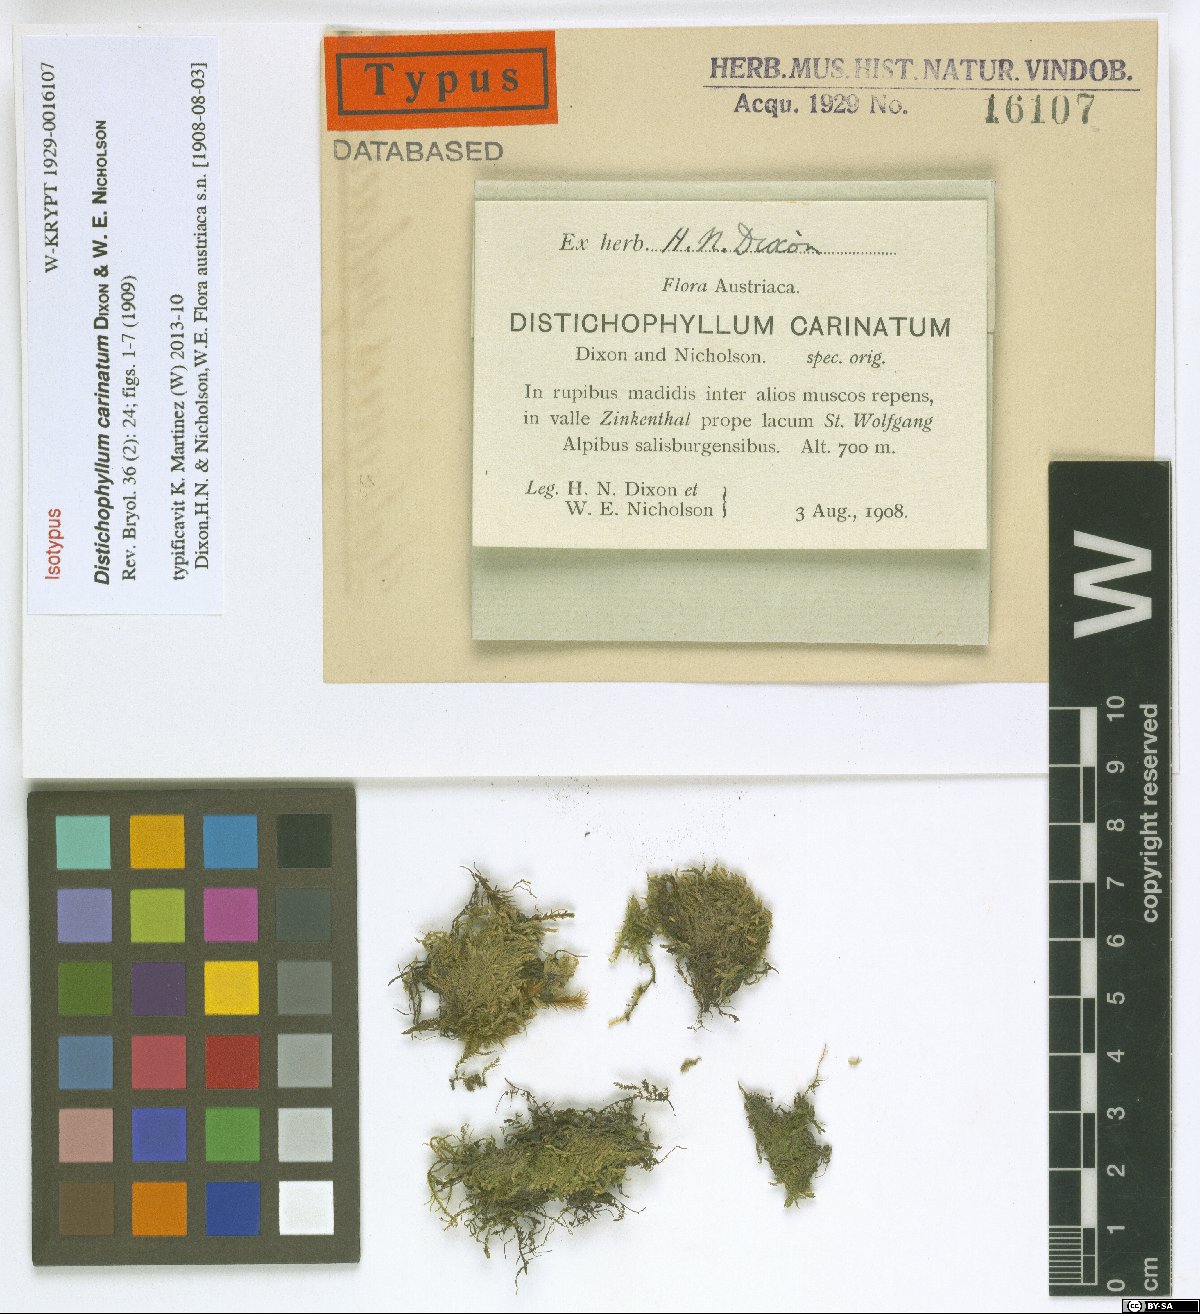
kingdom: Plantae
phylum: Bryophyta
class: Bryopsida
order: Hookeriales
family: Daltoniaceae
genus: Daltonia
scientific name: Daltonia carinata
